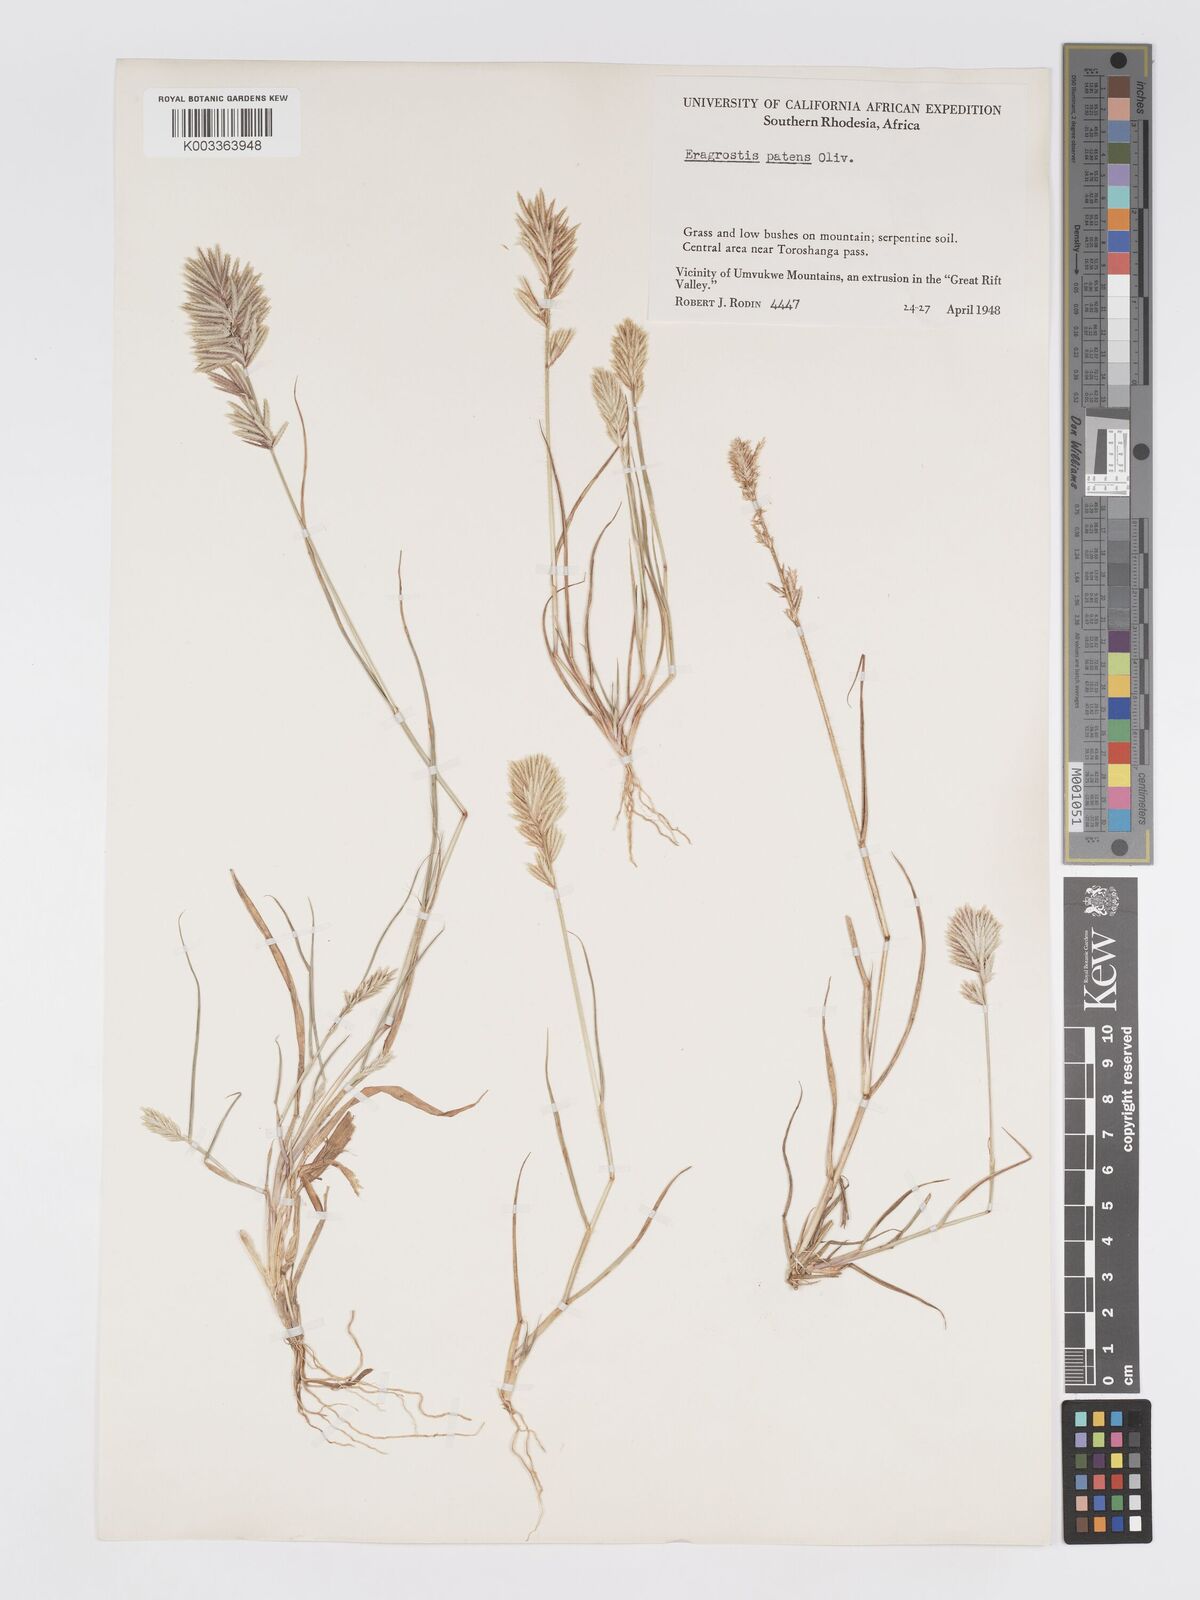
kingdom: Plantae
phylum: Tracheophyta
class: Liliopsida
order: Poales
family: Poaceae
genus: Eragrostis
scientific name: Eragrostis patens
